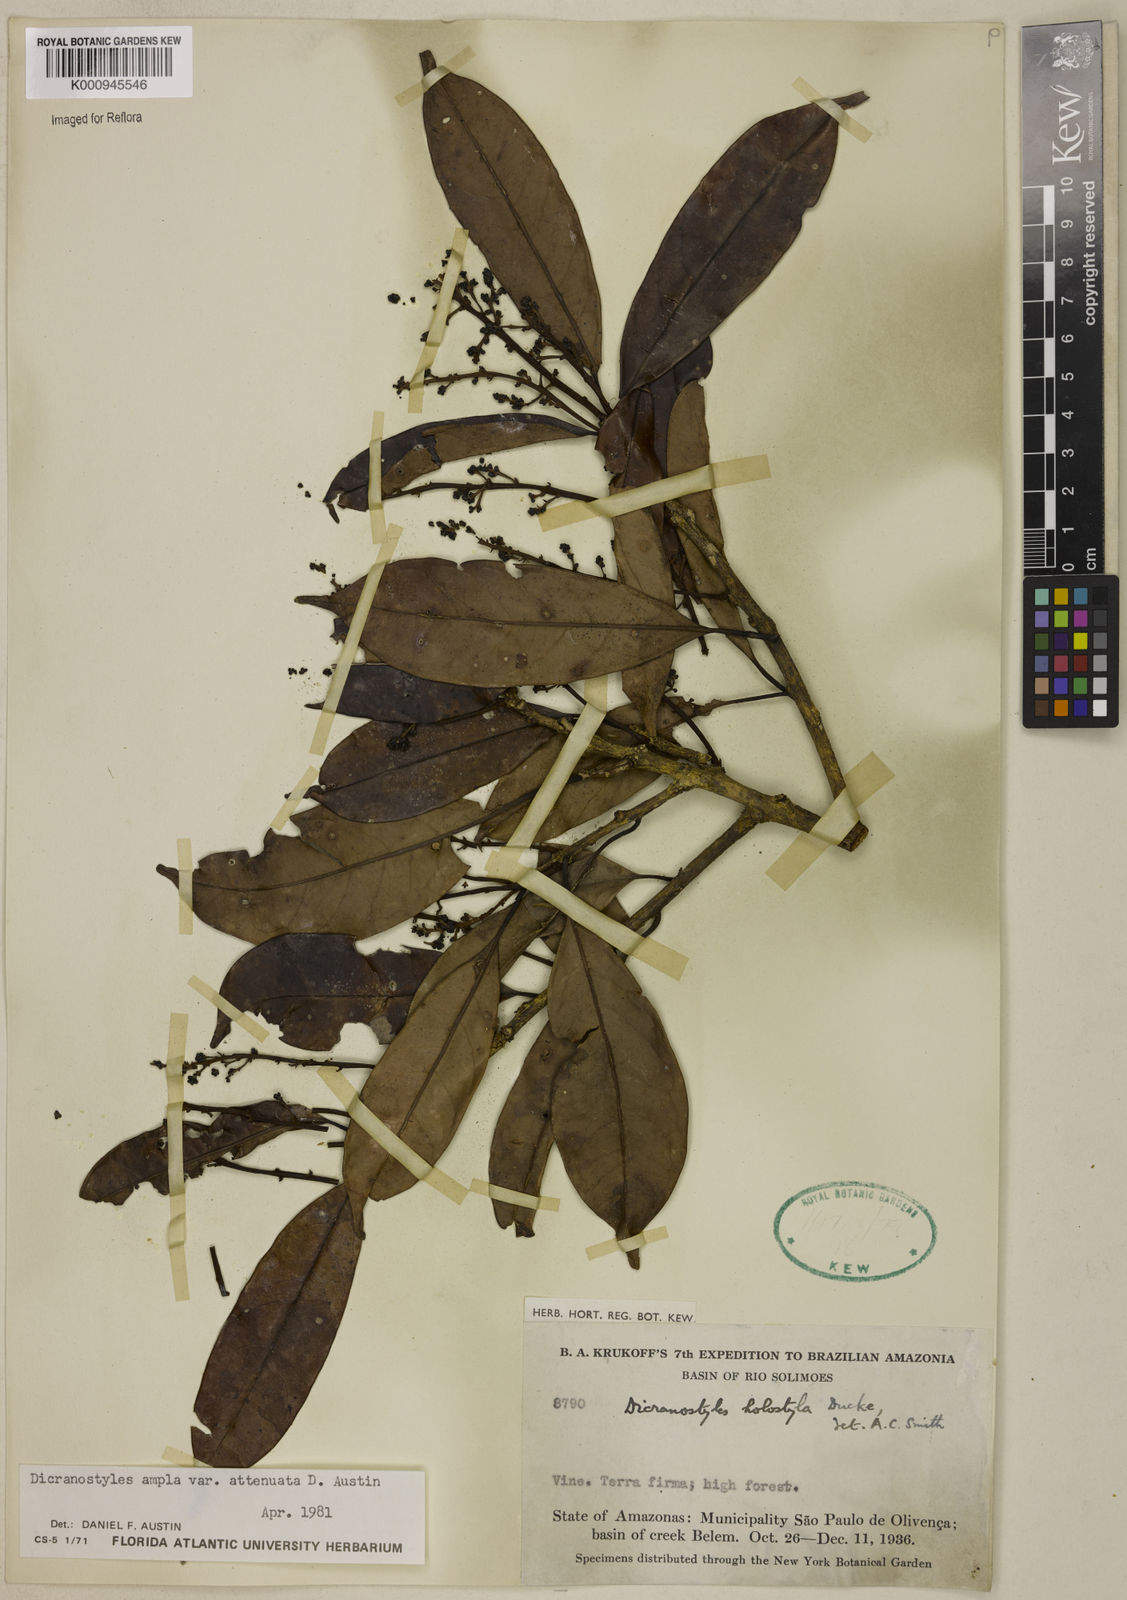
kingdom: Plantae
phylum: Tracheophyta
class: Magnoliopsida
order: Solanales
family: Convolvulaceae
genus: Dicranostyles
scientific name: Dicranostyles ampla
